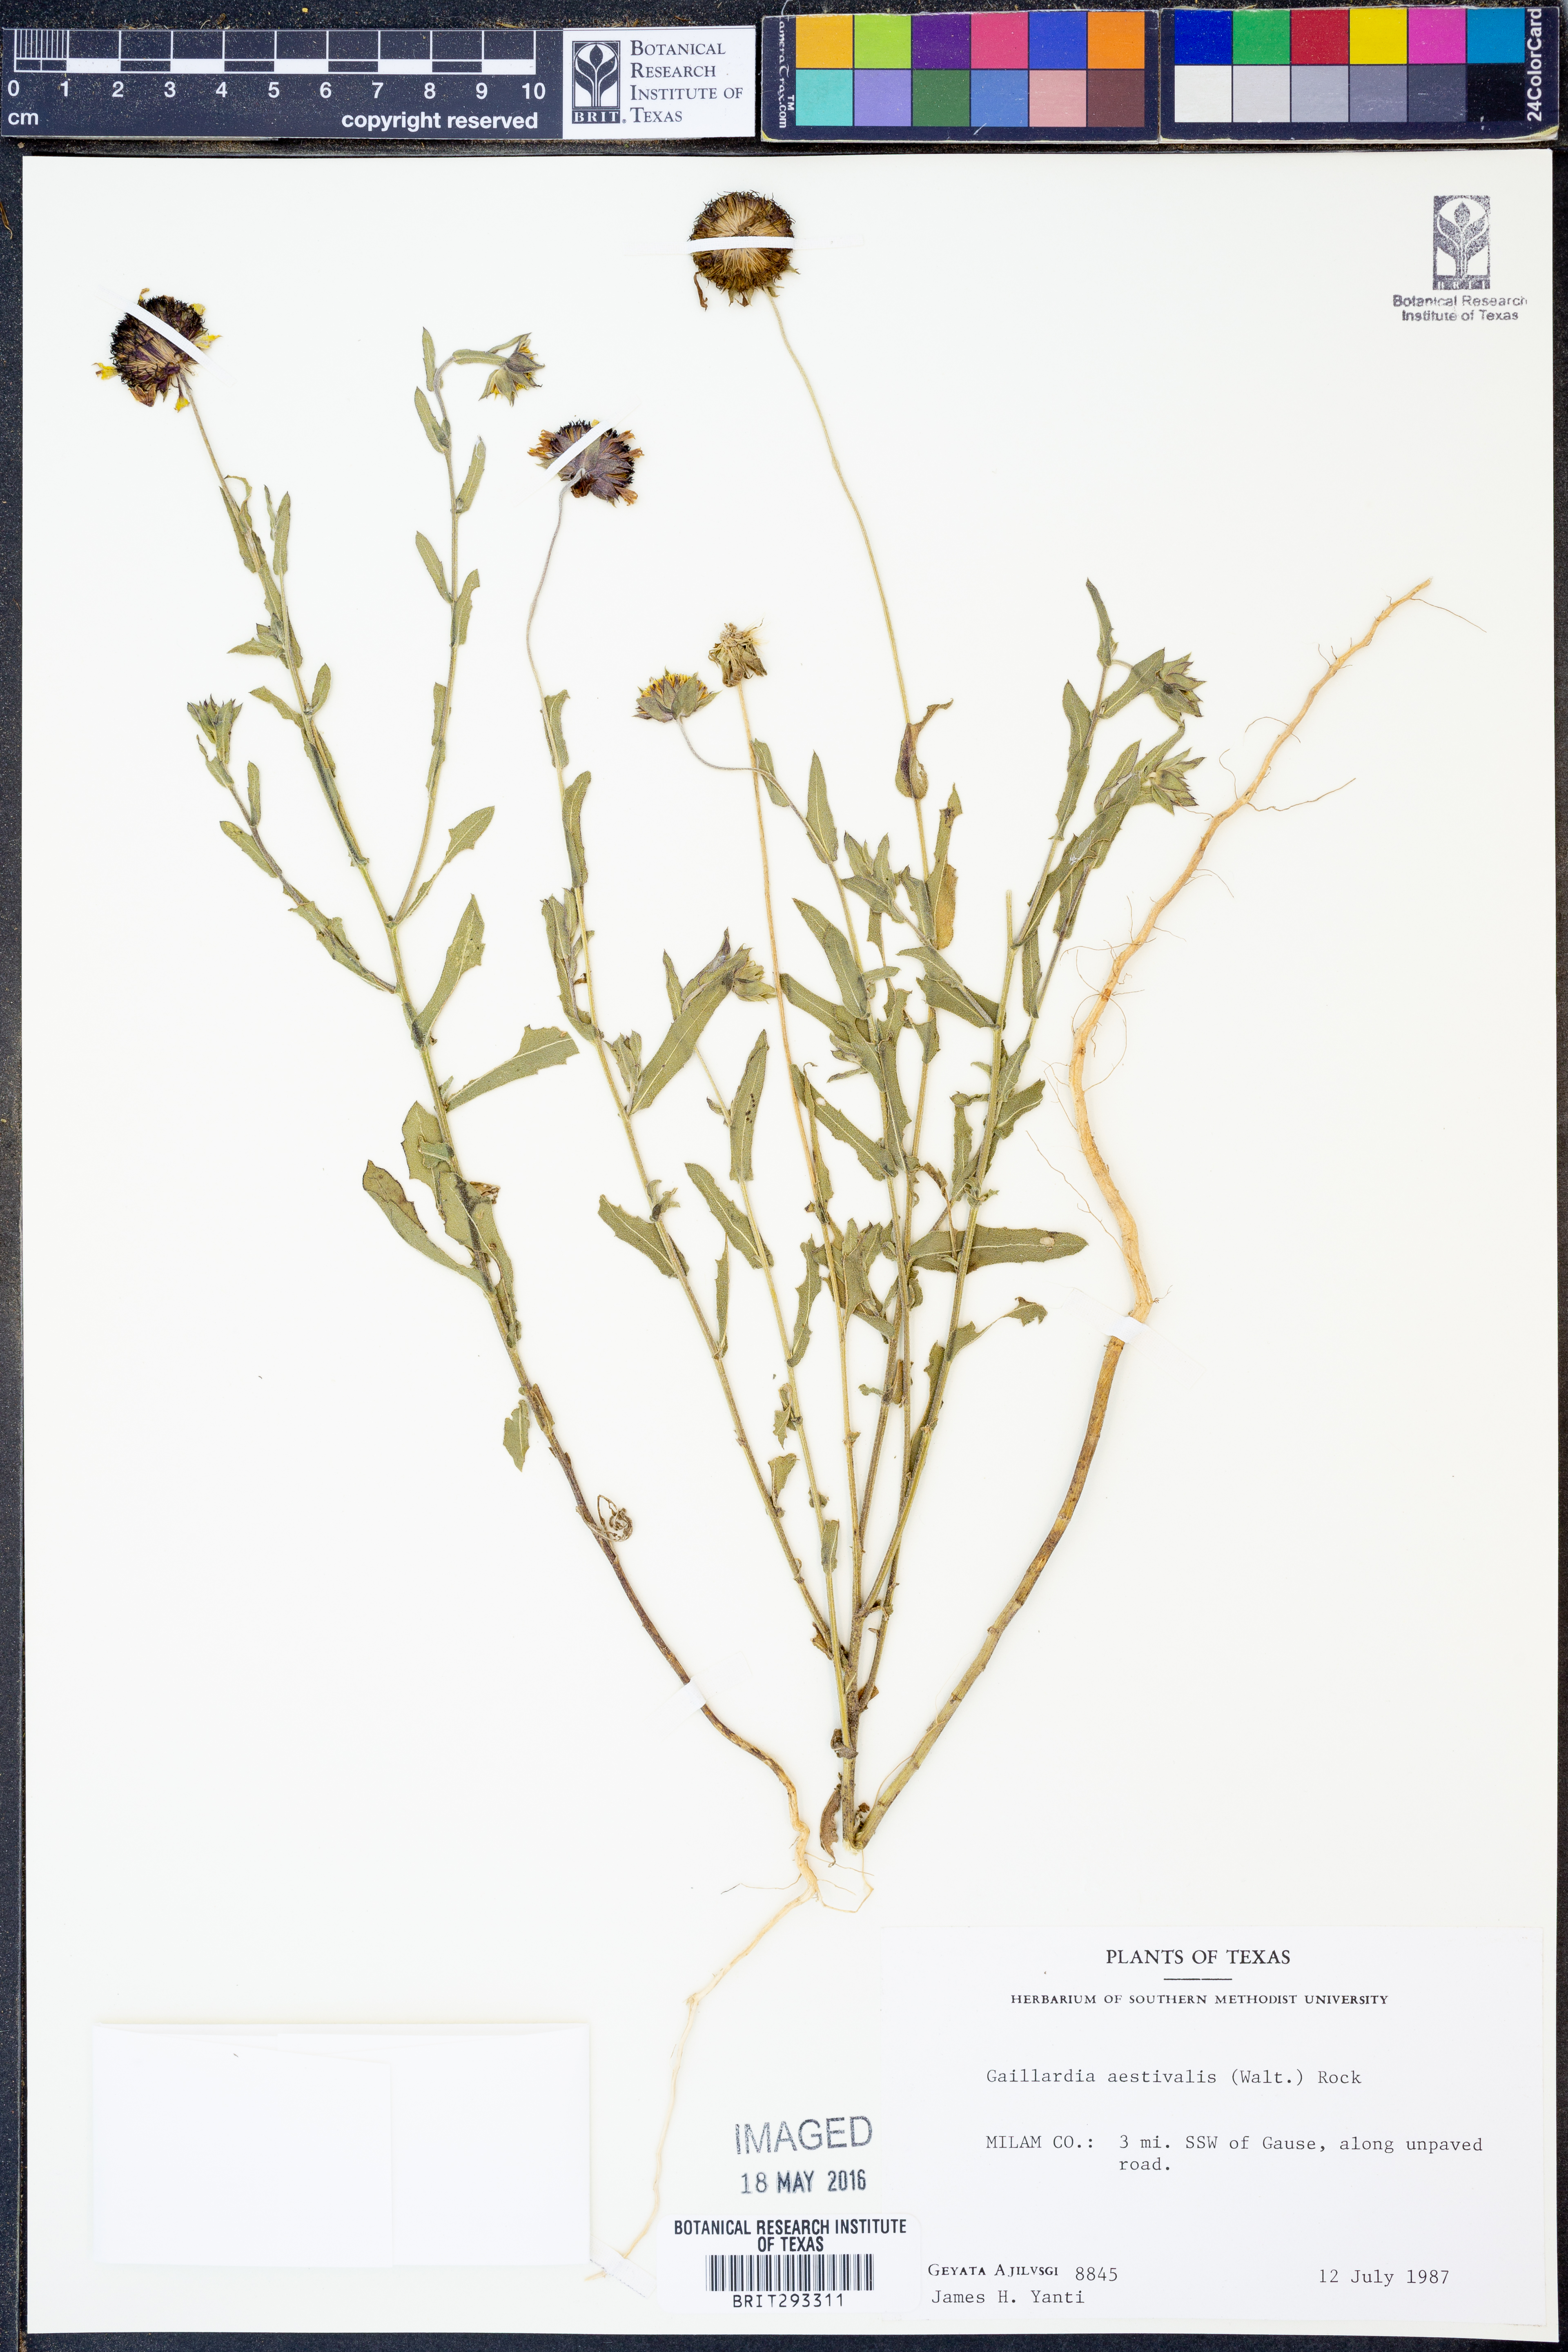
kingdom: Plantae
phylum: Tracheophyta
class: Magnoliopsida
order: Asterales
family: Asteraceae
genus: Gaillardia
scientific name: Gaillardia aestivalis
